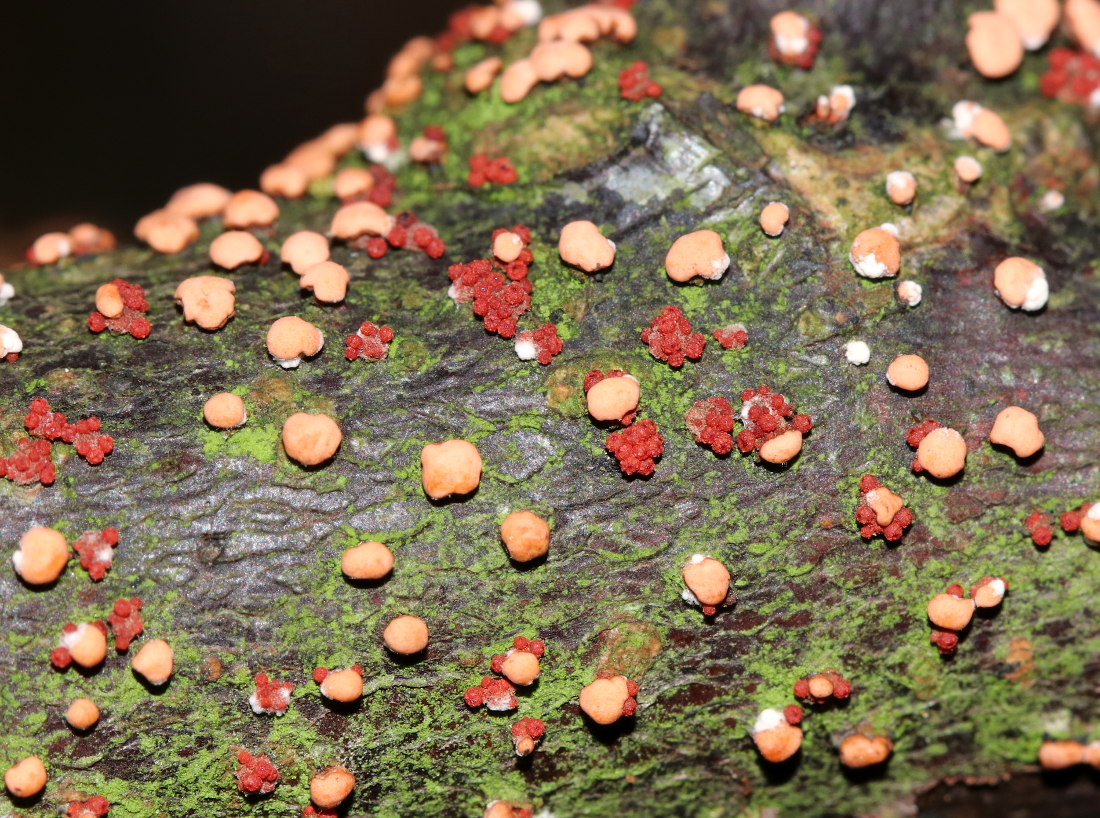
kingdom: Fungi
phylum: Ascomycota
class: Sordariomycetes
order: Hypocreales
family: Nectriaceae
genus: Nectria
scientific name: Nectria cinnabarina
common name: almindelig cinnobersvamp
